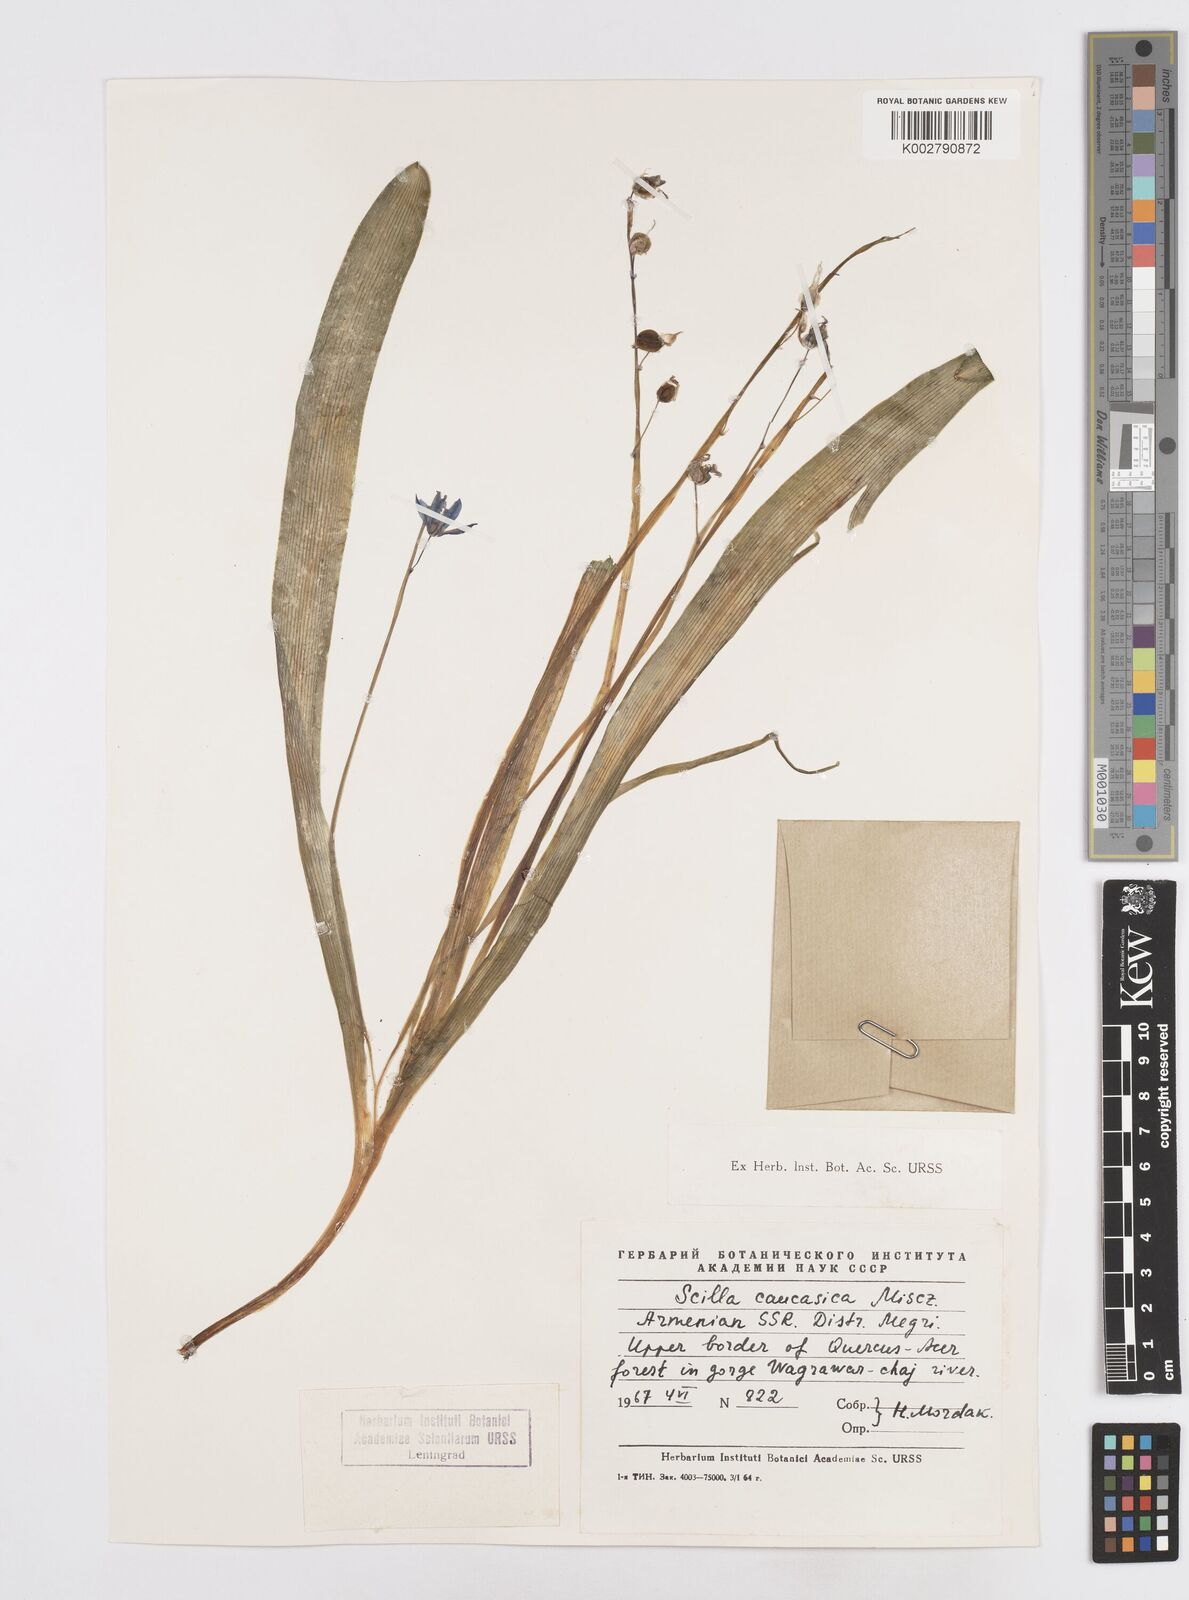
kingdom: Plantae
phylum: Tracheophyta
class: Liliopsida
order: Asparagales
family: Asparagaceae
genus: Scilla
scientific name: Scilla siberica
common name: Siberian squill
